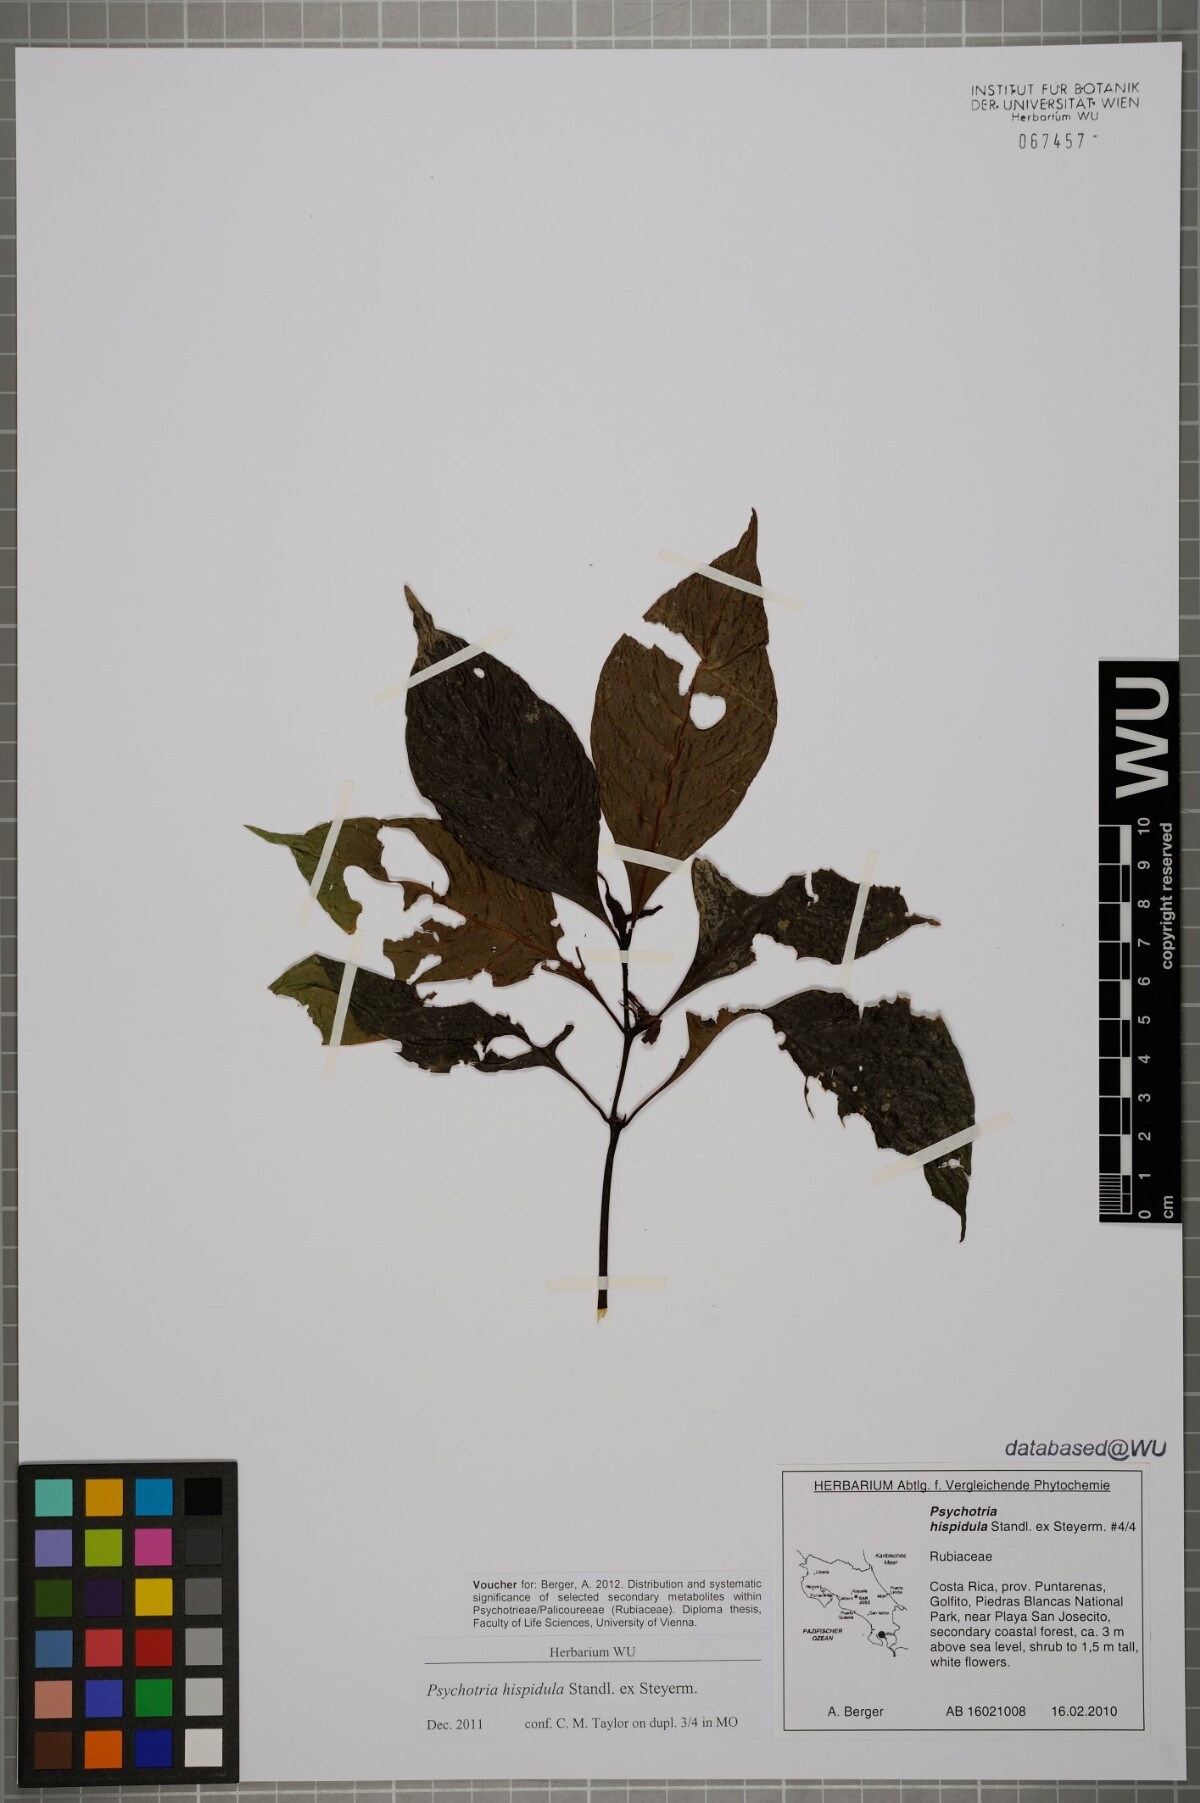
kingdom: Plantae
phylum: Tracheophyta
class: Magnoliopsida
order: Gentianales
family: Rubiaceae
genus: Palicourea
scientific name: Palicourea longiinvolucrata
